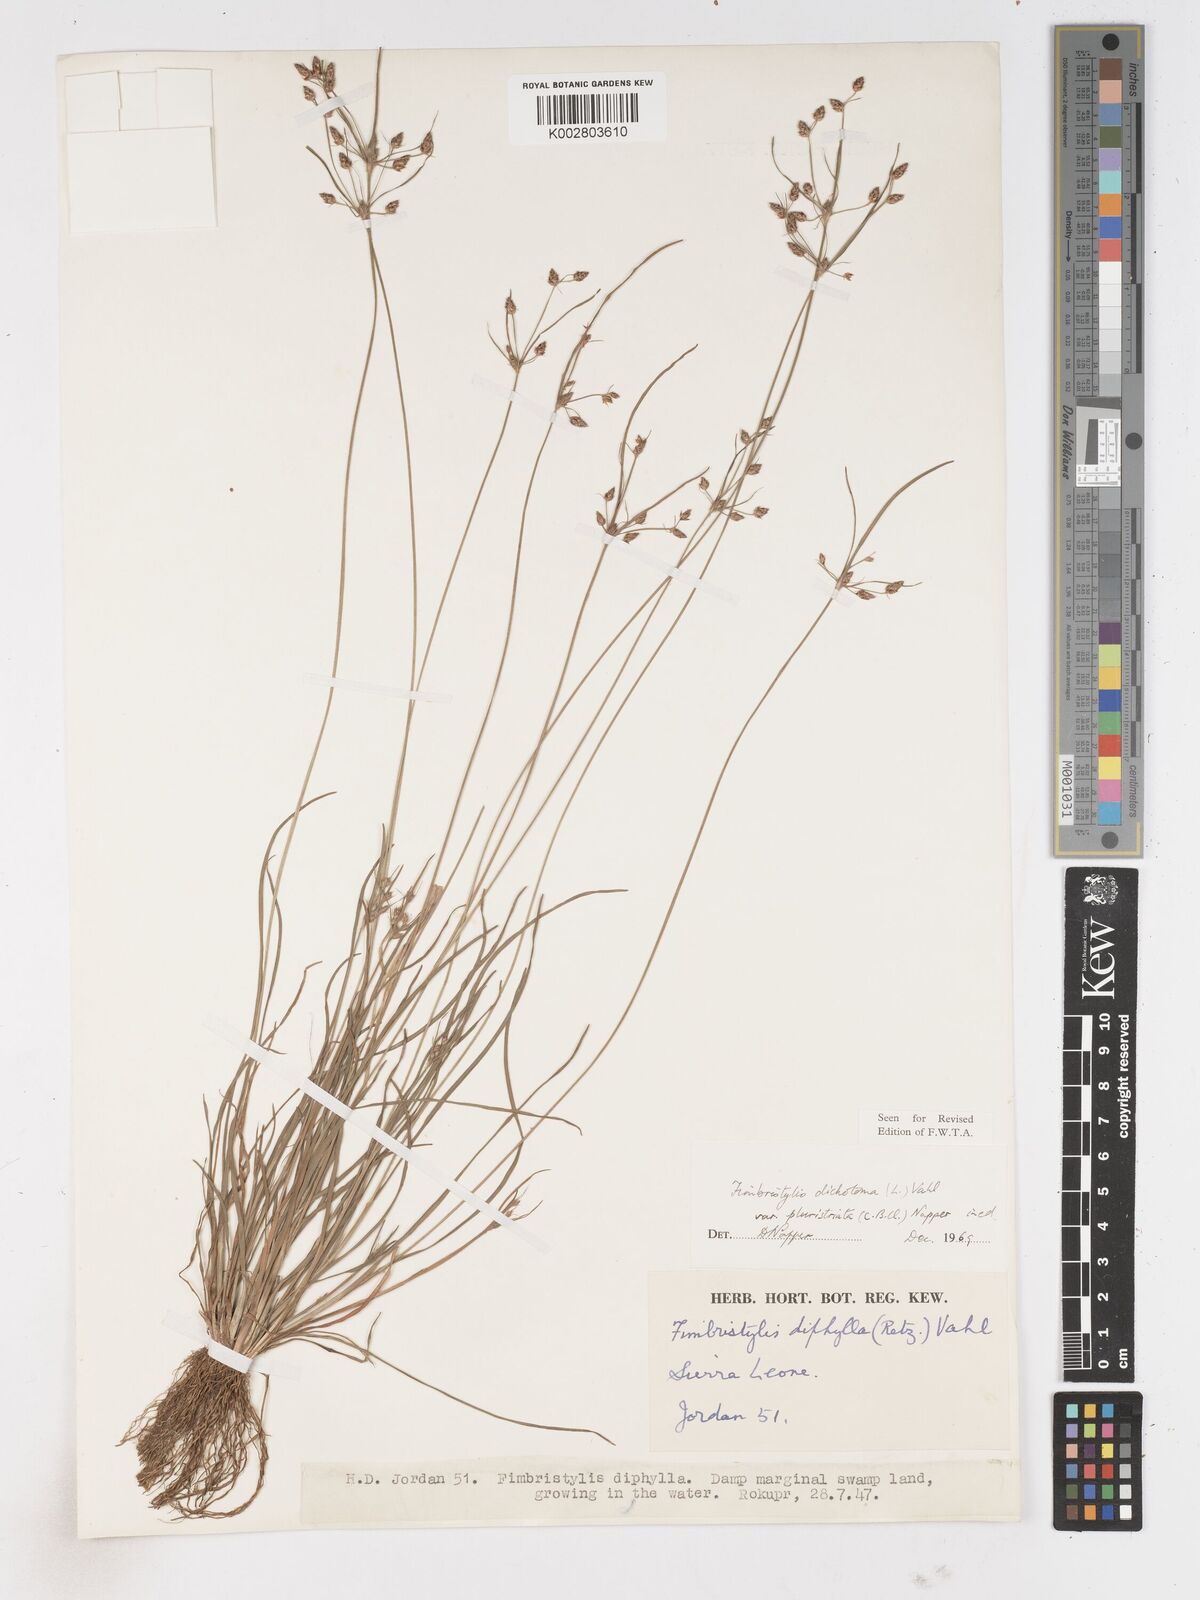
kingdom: Plantae
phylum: Tracheophyta
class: Liliopsida
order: Poales
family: Cyperaceae
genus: Fimbristylis
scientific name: Fimbristylis dichotoma
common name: Forked fimbry
